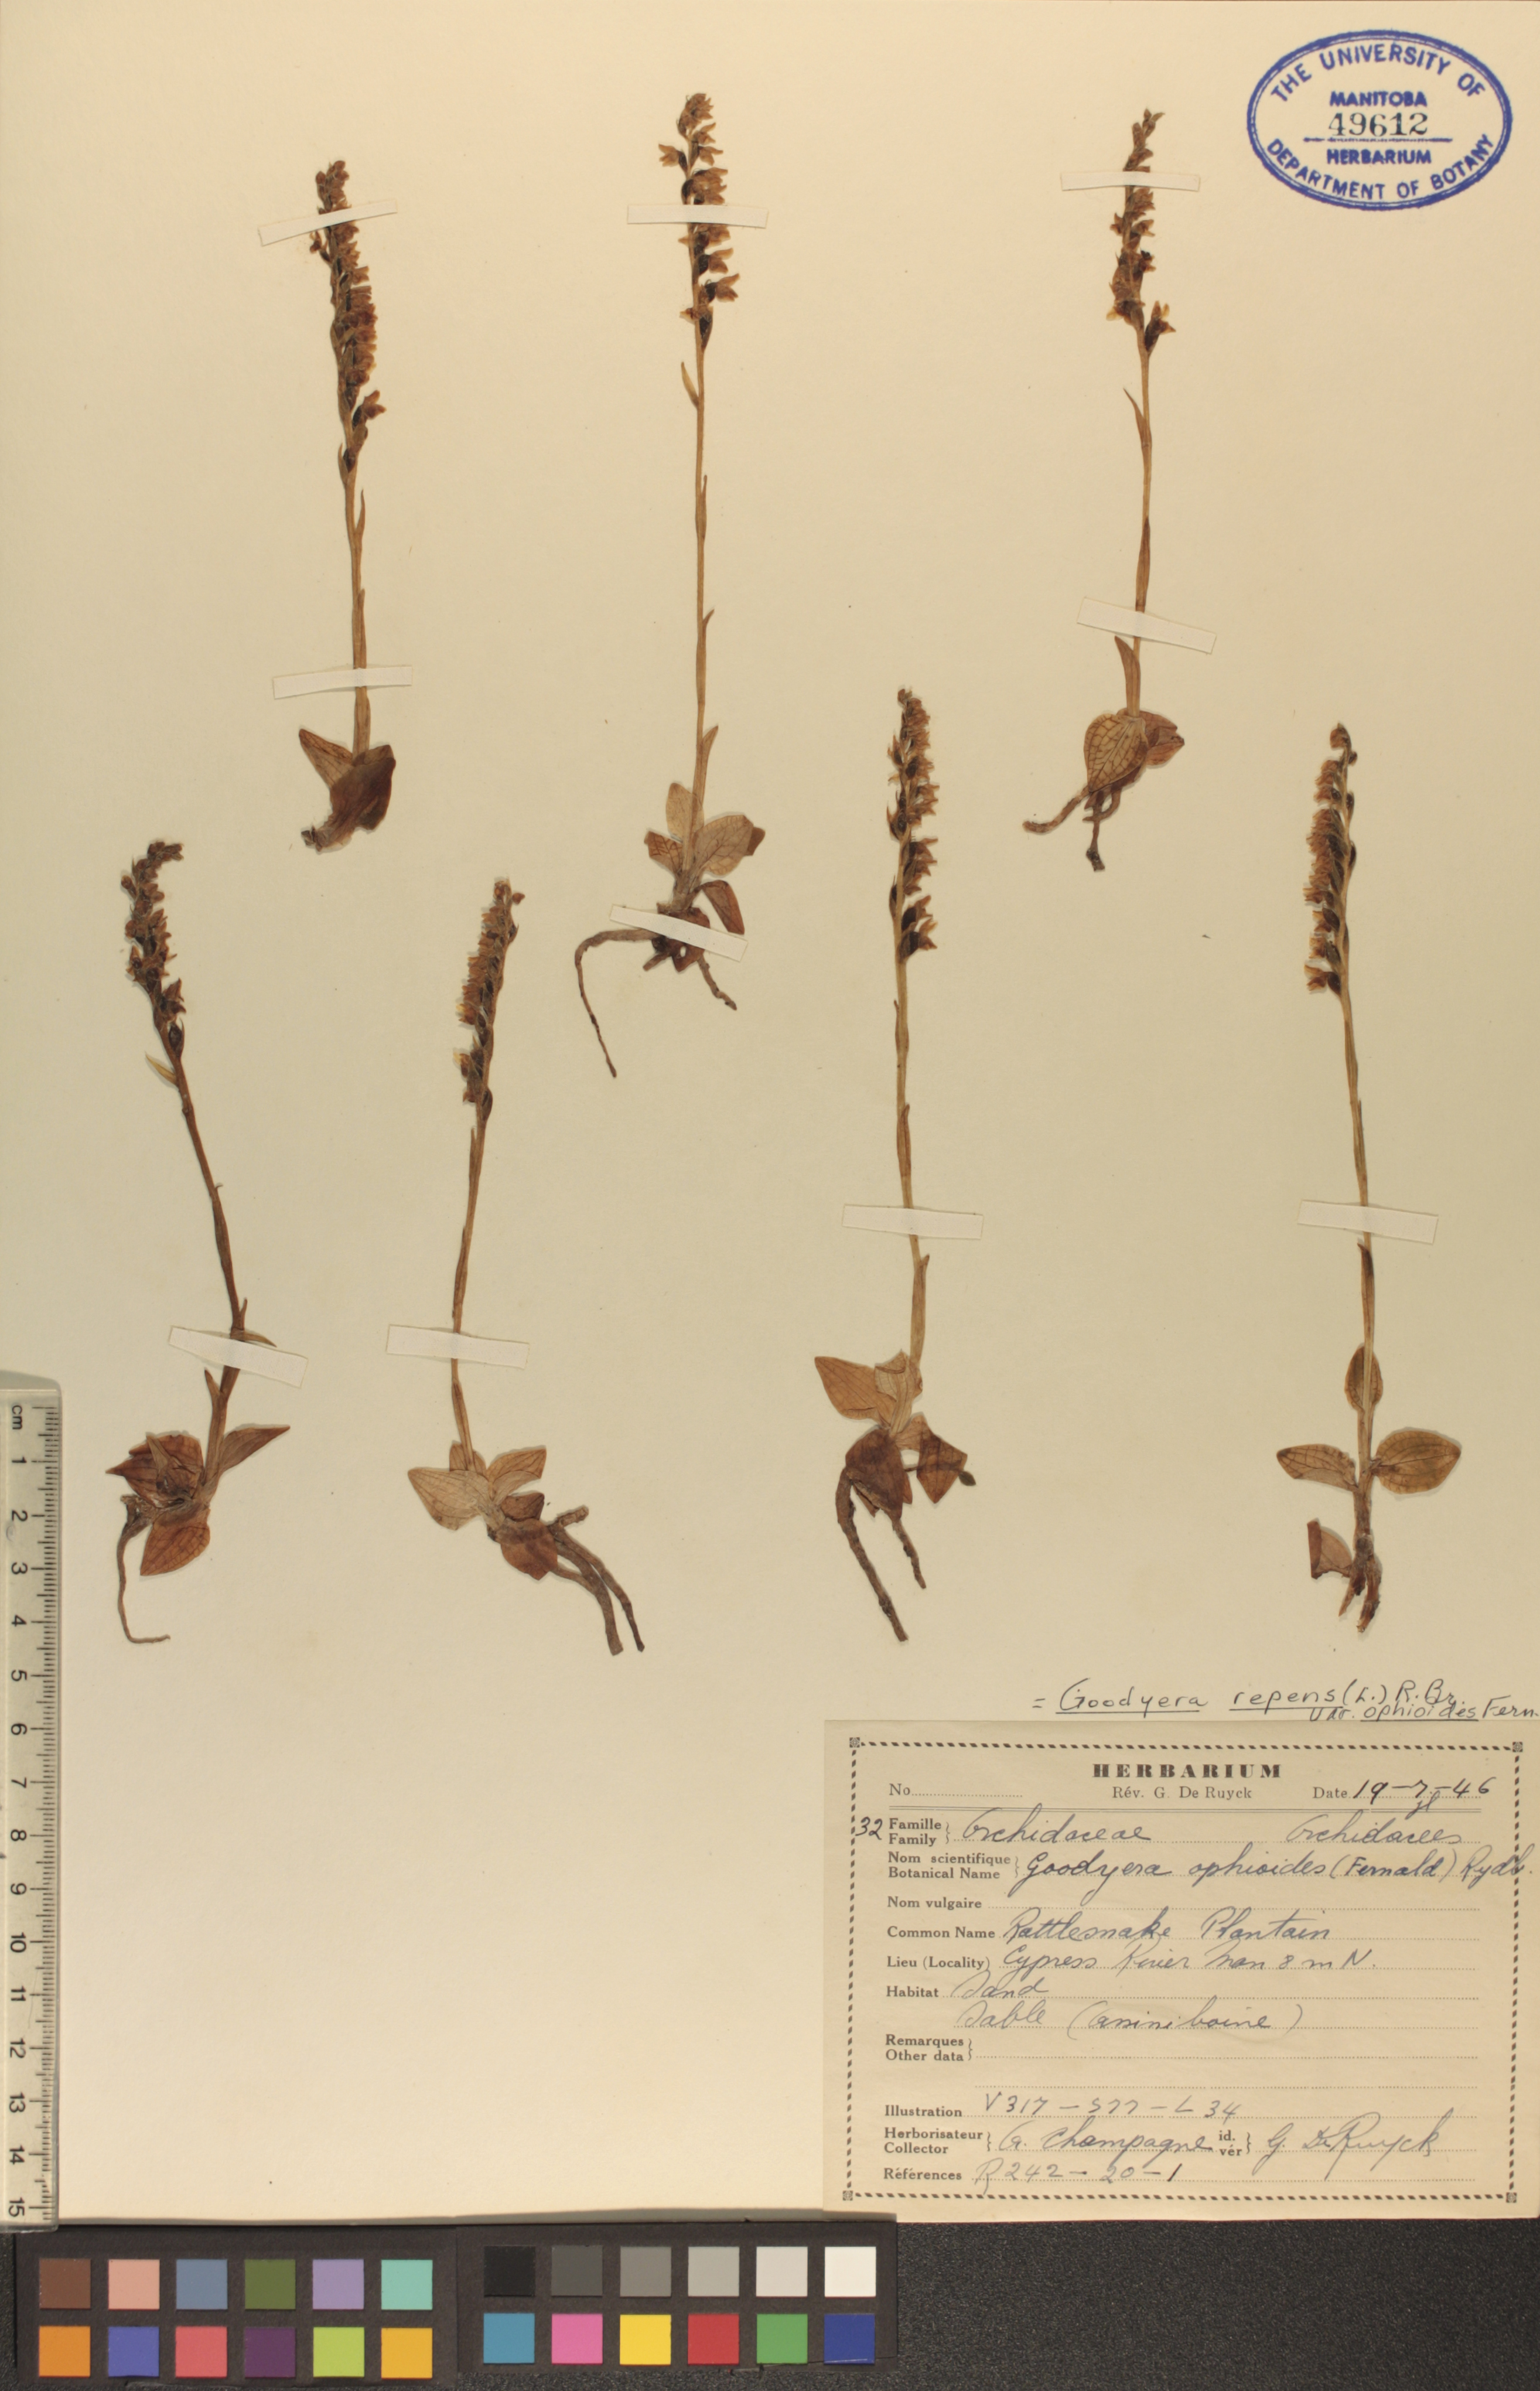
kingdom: Plantae
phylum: Tracheophyta
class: Liliopsida
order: Asparagales
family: Orchidaceae
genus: Goodyera
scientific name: Goodyera repens
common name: Creeping lady's-tresses
